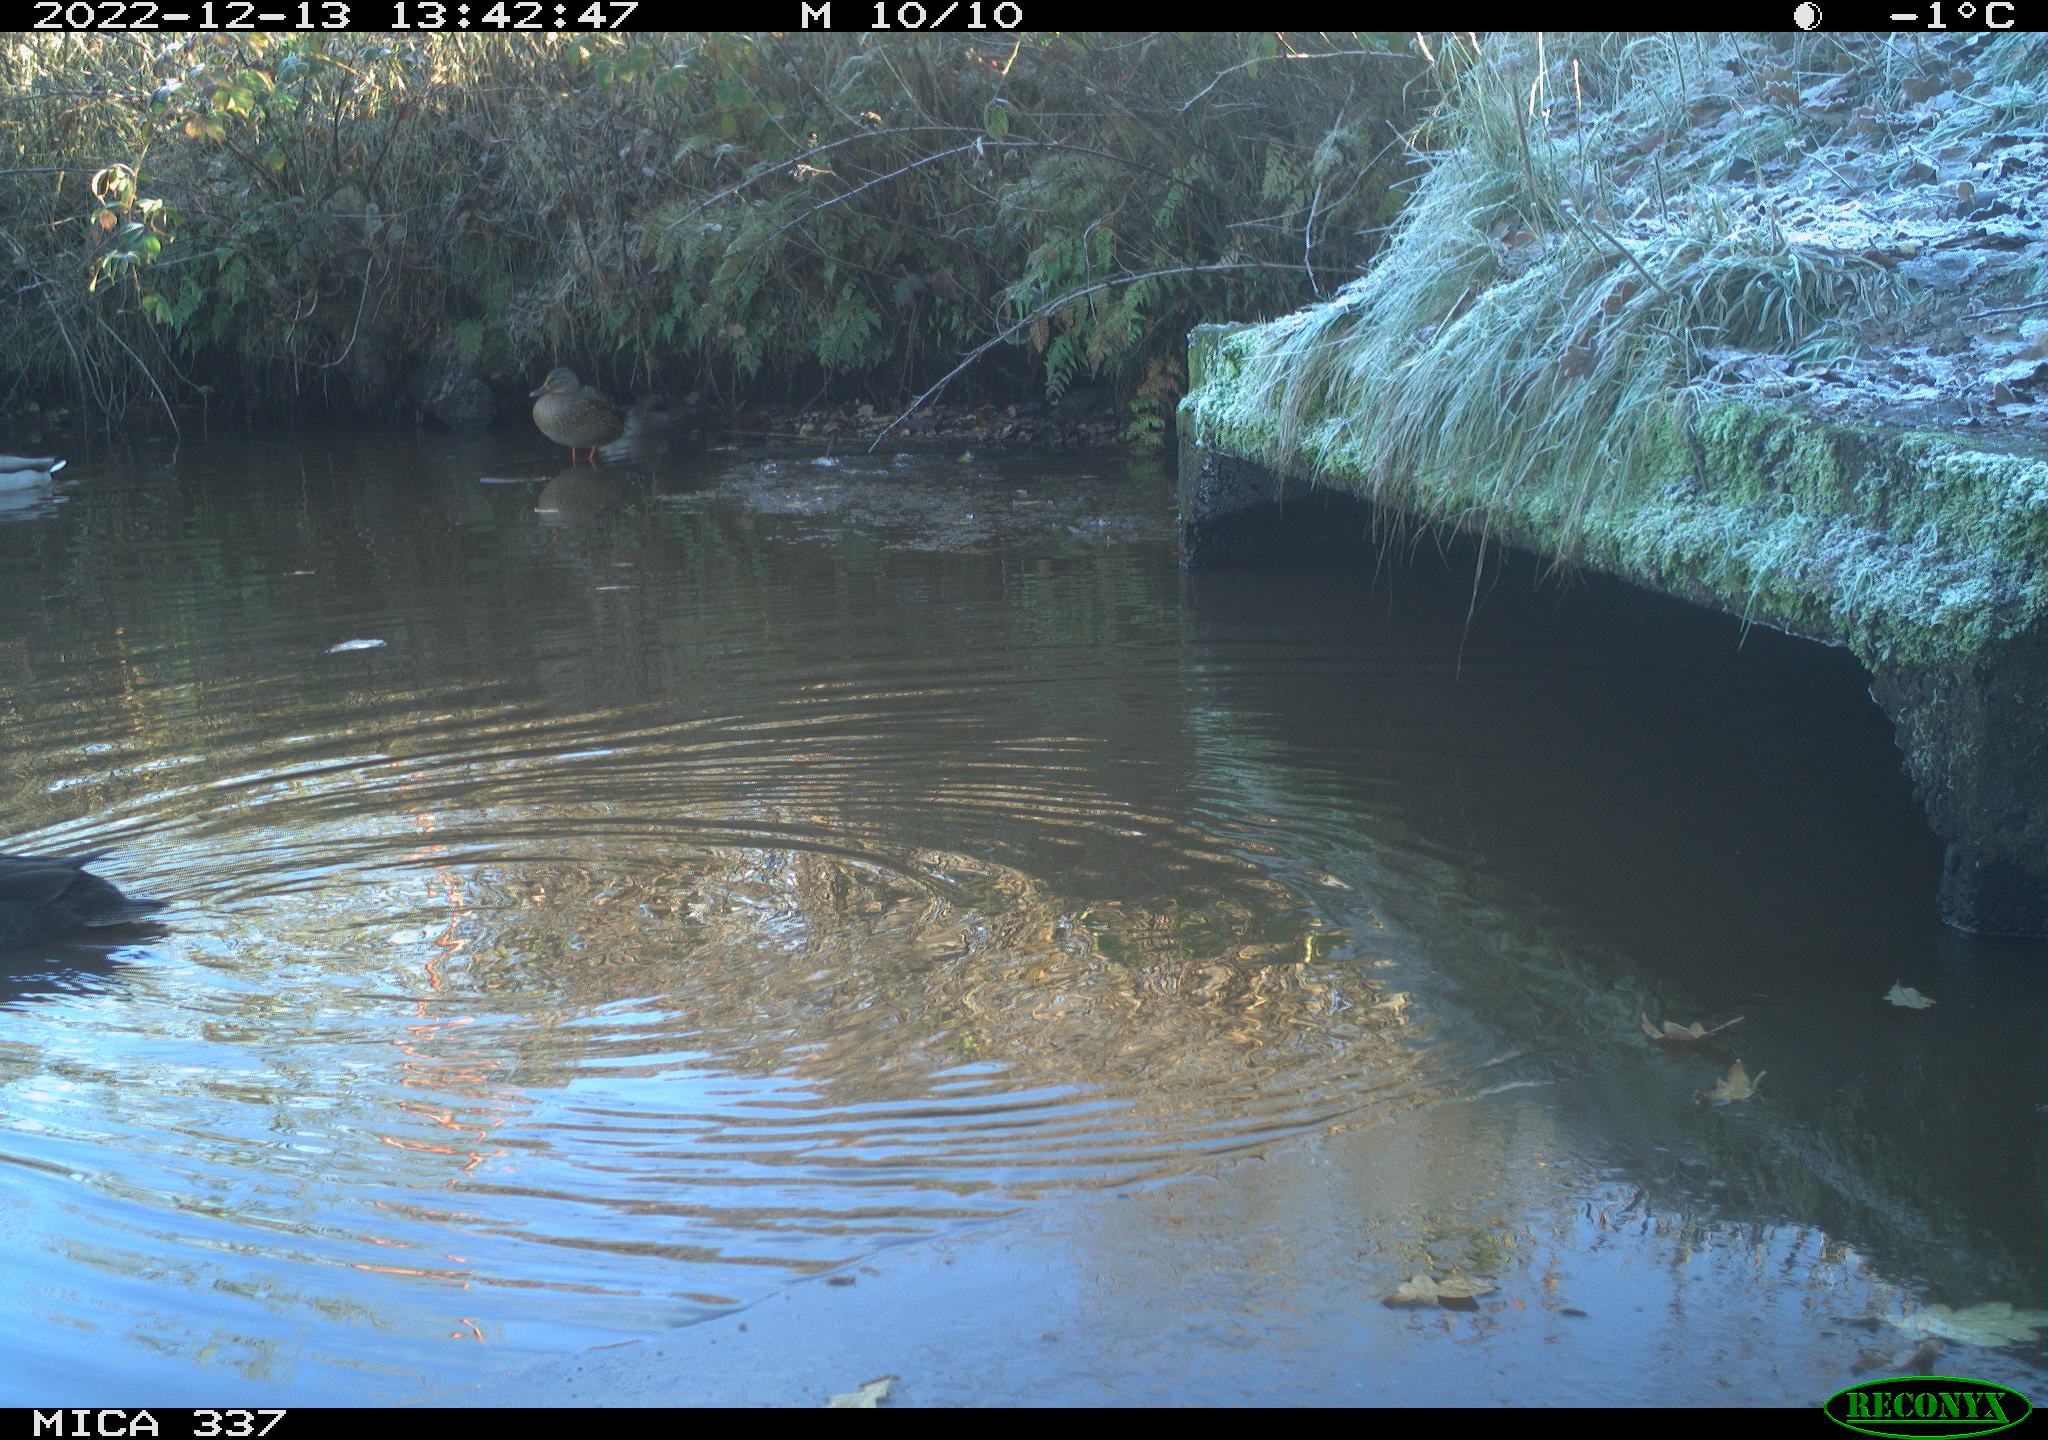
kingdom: Animalia
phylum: Chordata
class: Aves
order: Gruiformes
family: Rallidae
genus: Fulica
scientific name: Fulica atra
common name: Eurasian coot
